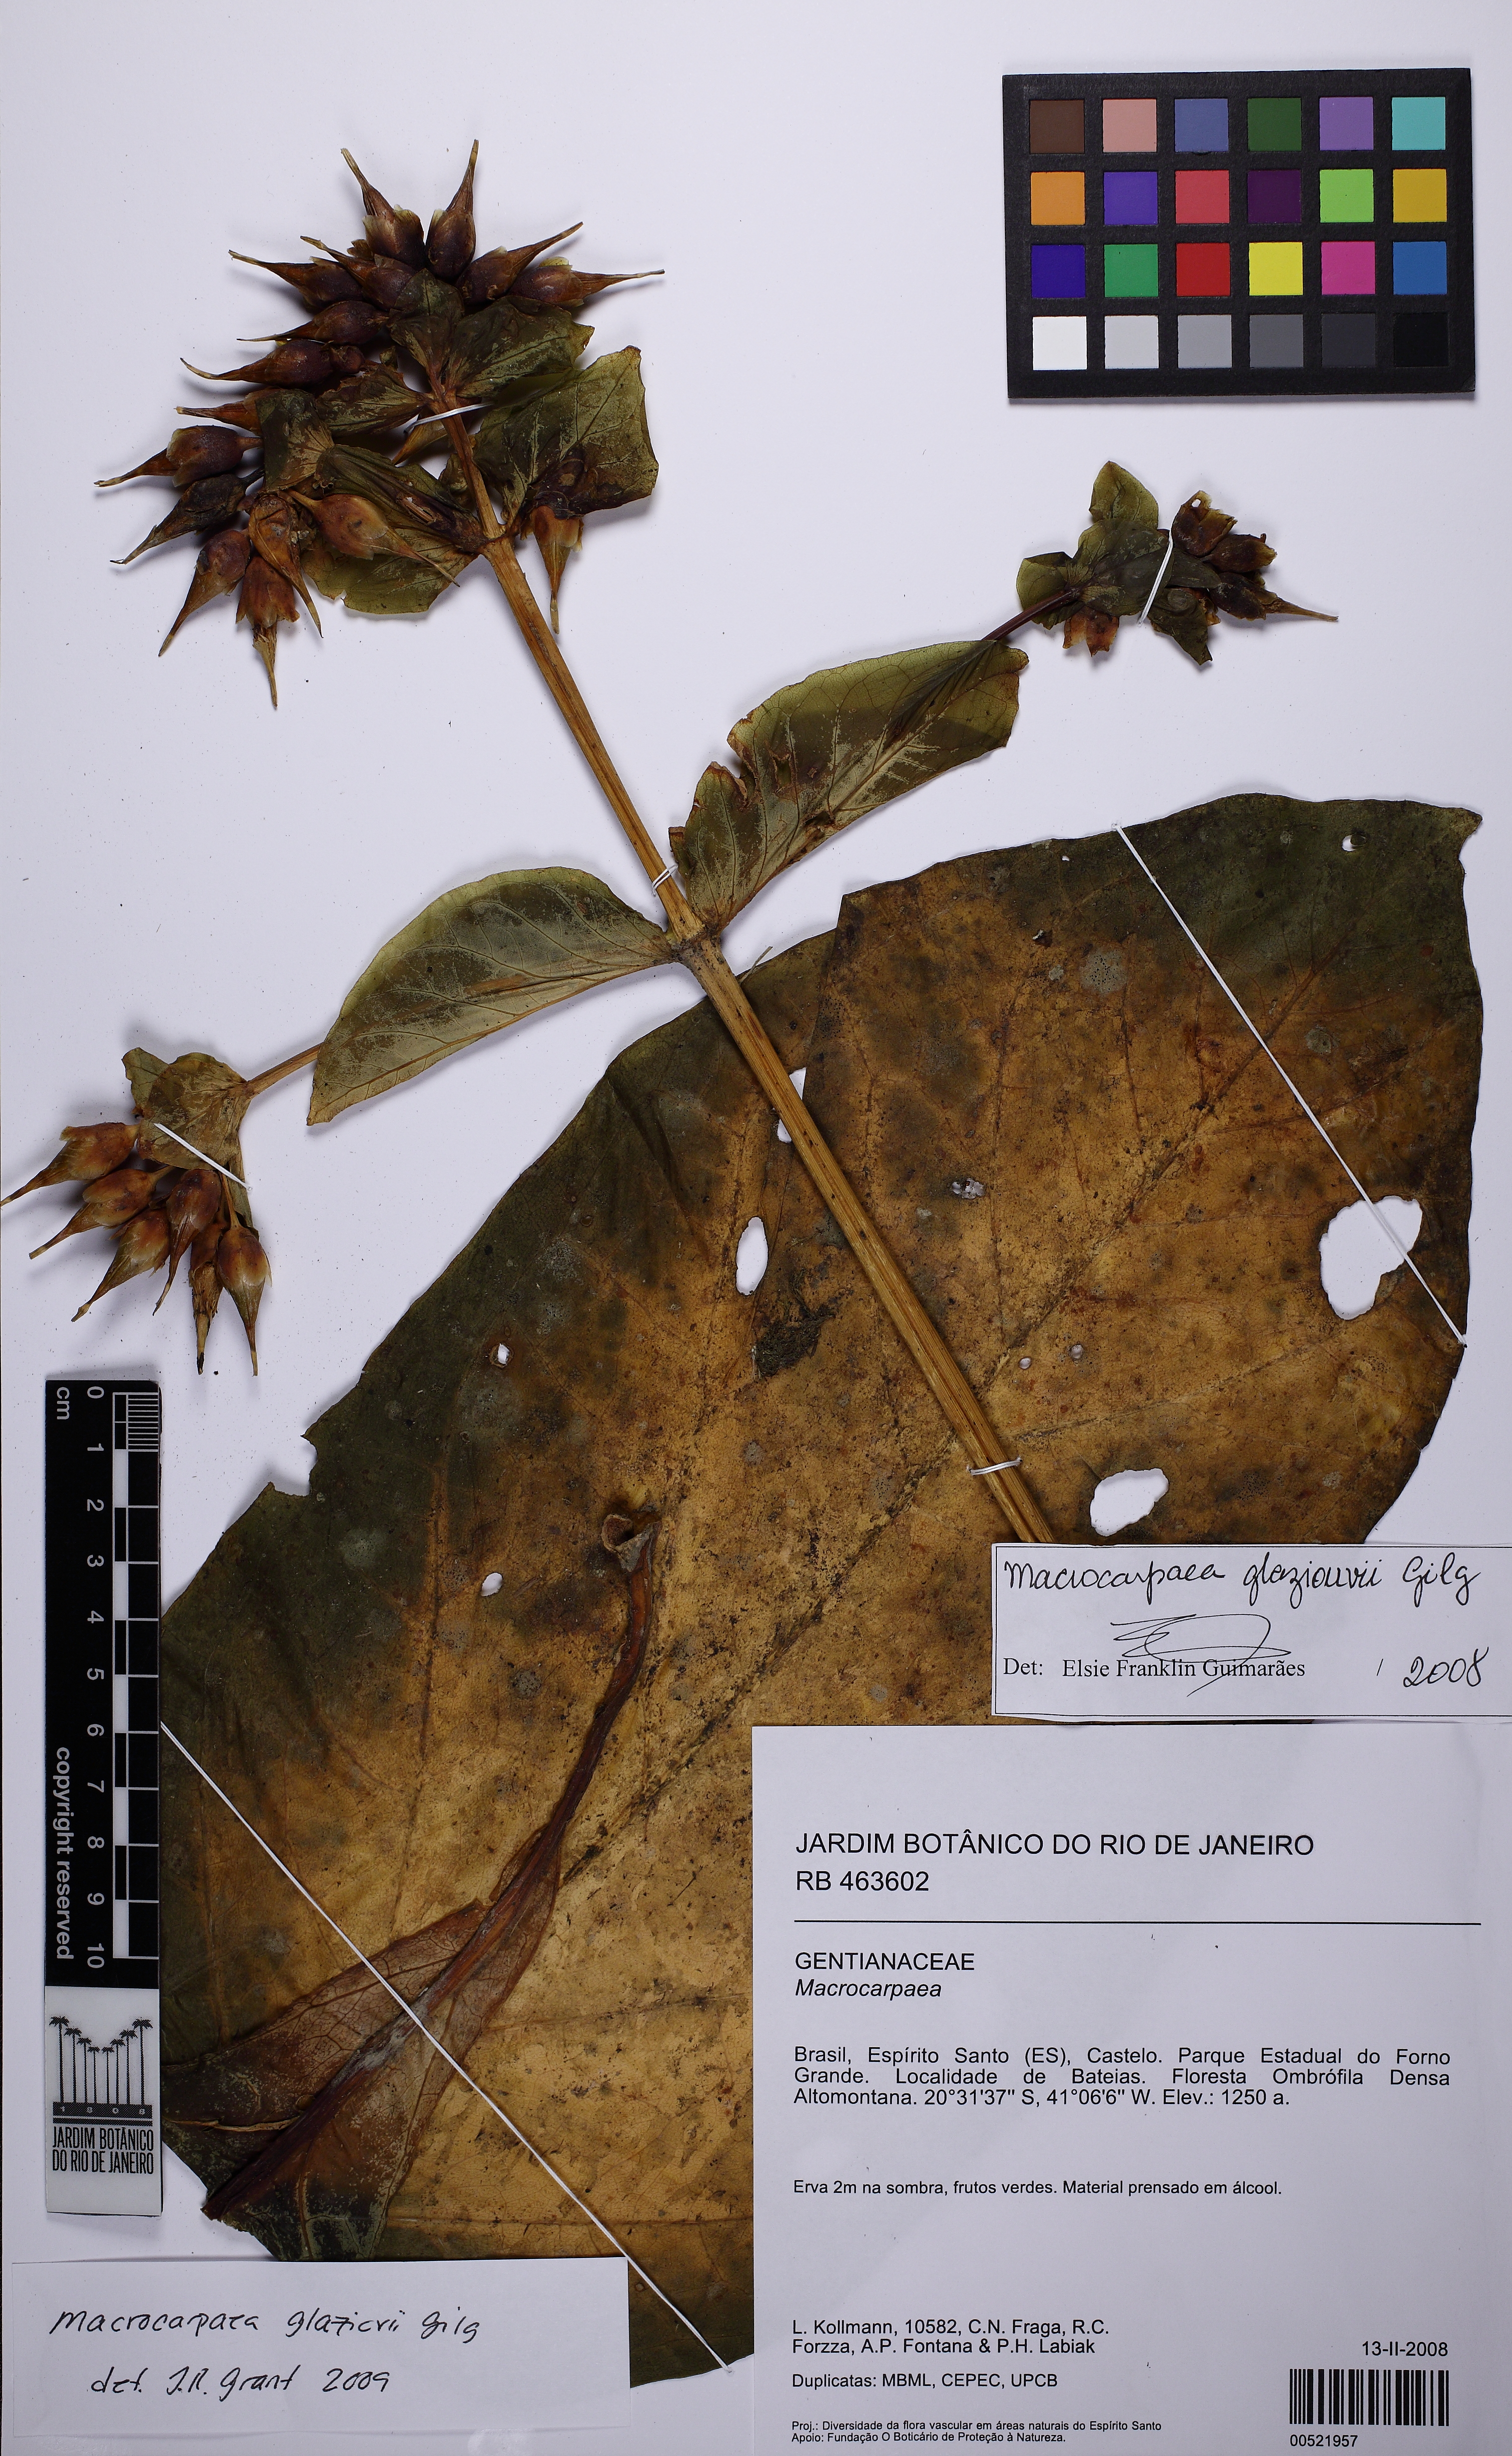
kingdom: Plantae
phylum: Tracheophyta
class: Magnoliopsida
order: Gentianales
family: Gentianaceae
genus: Macrocarpaea
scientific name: Macrocarpaea glaziovii
